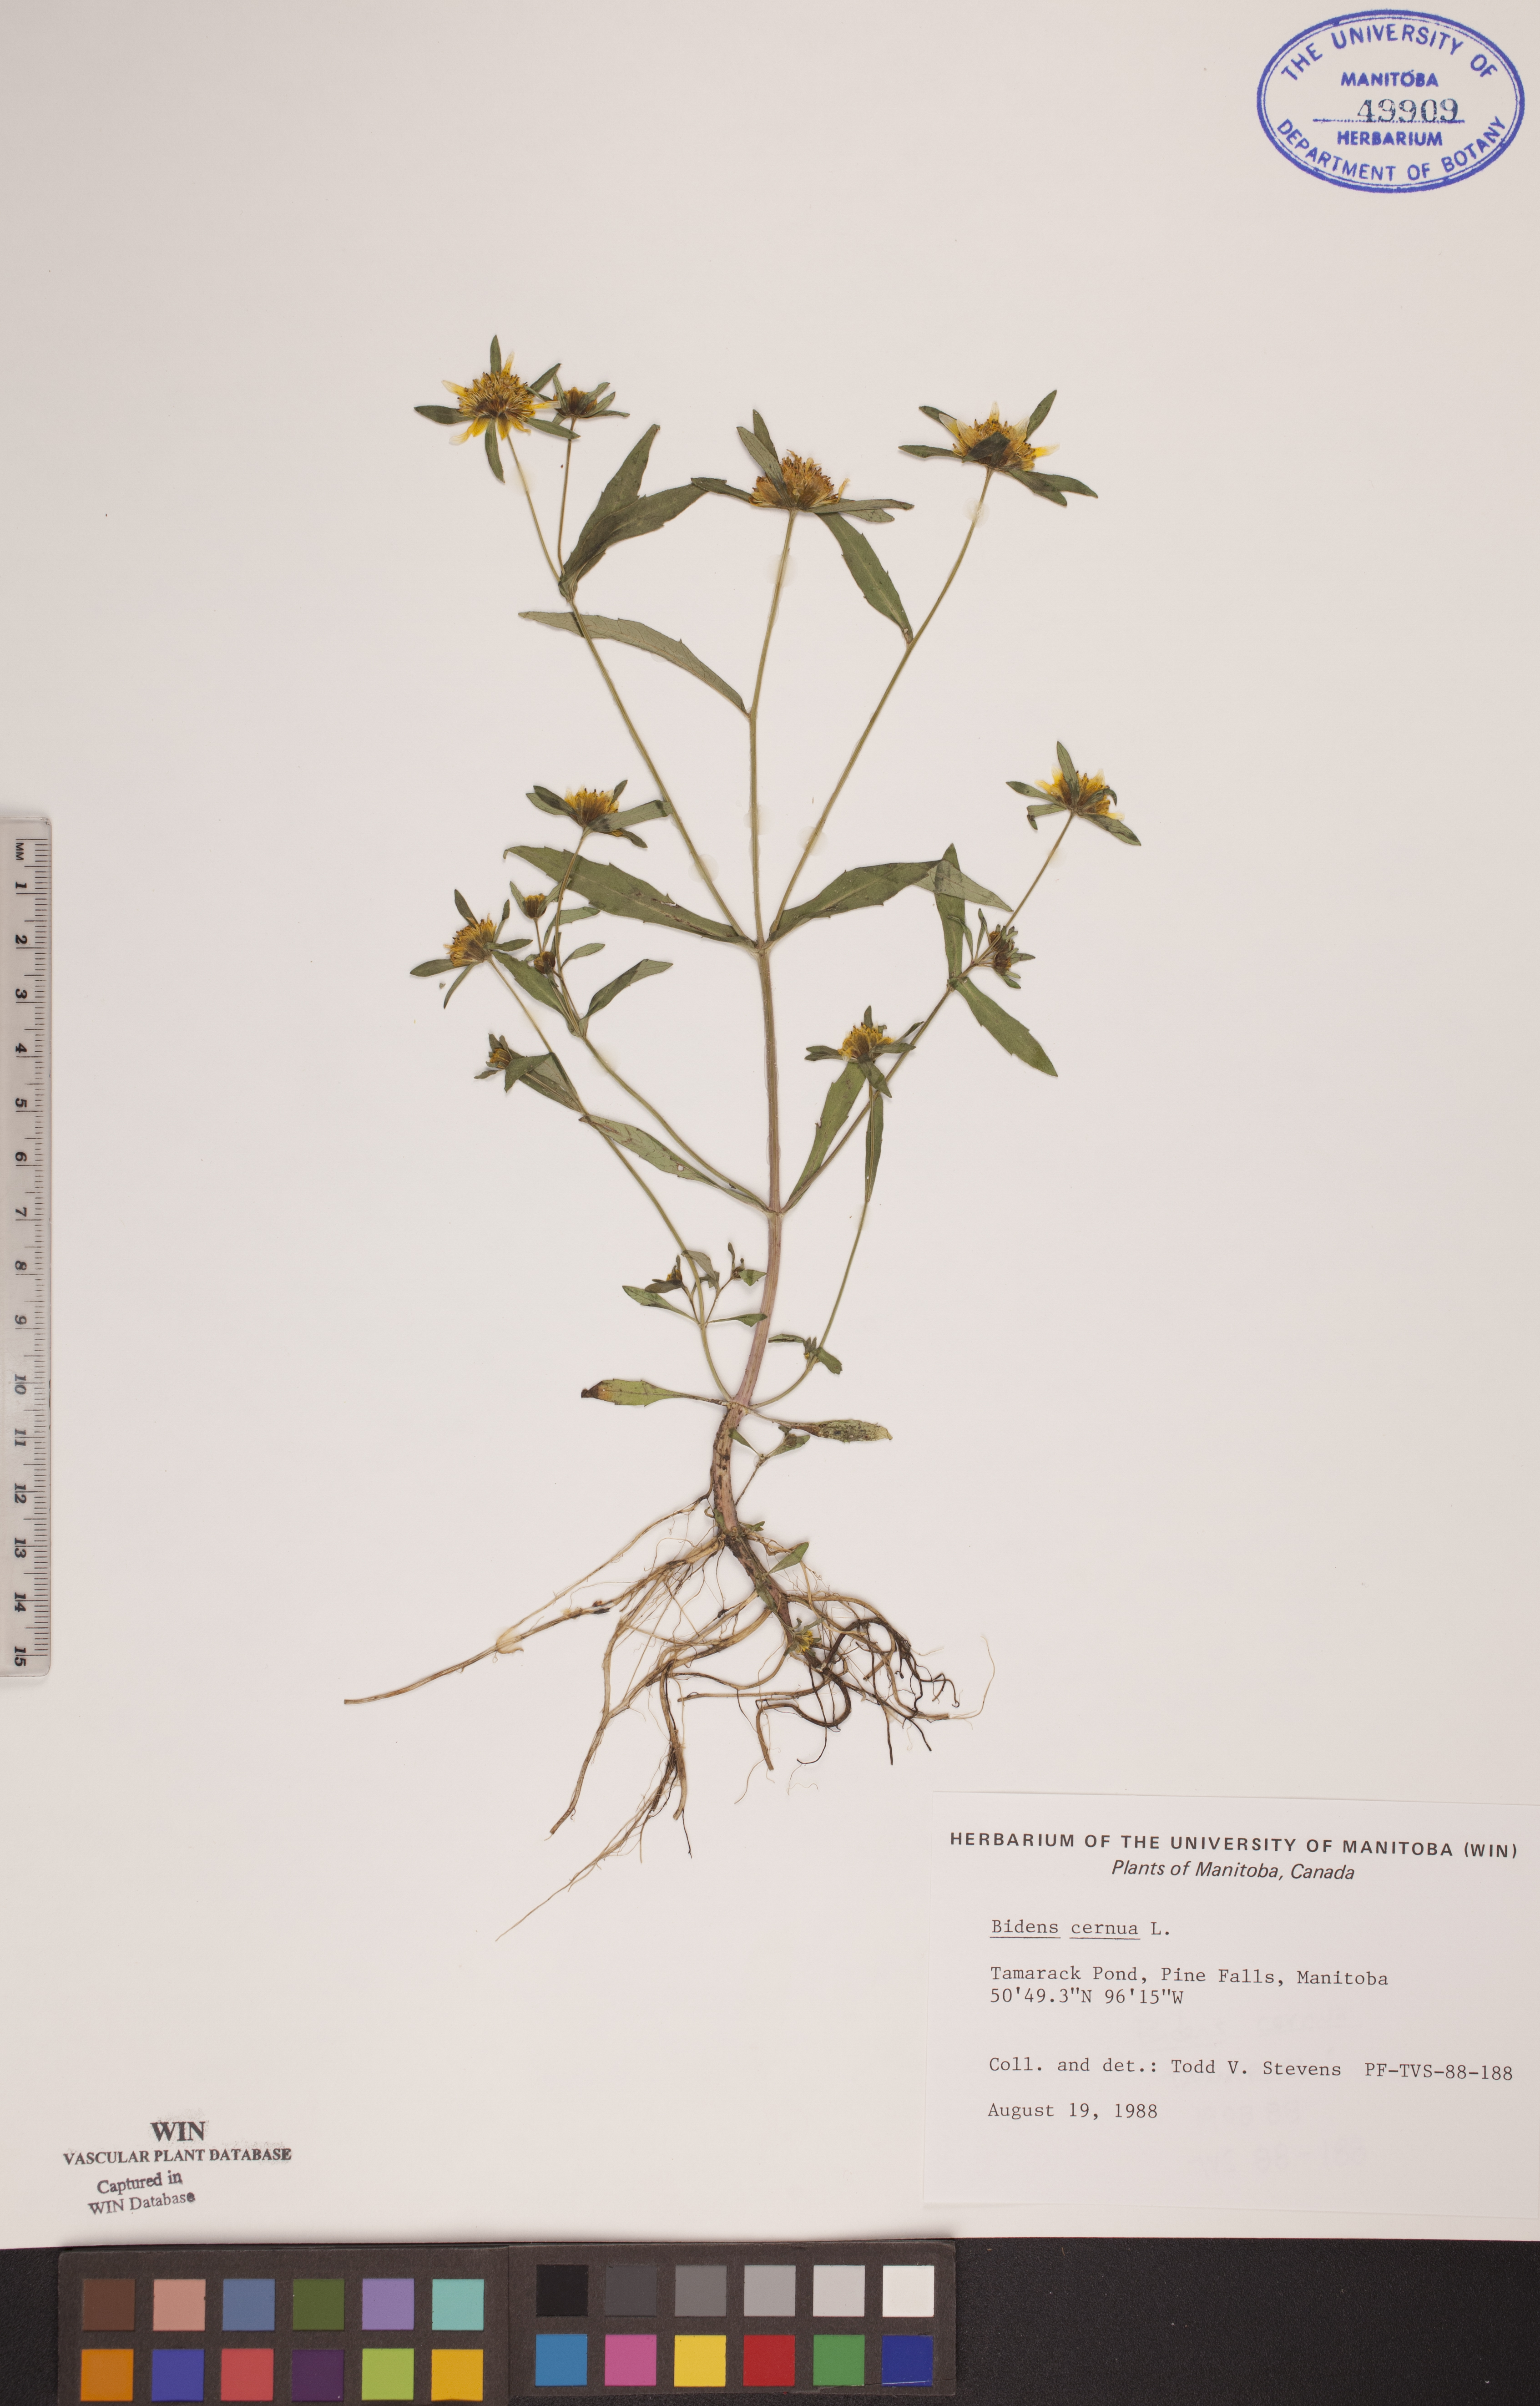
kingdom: Plantae
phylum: Tracheophyta
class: Magnoliopsida
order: Asterales
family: Asteraceae
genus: Bidens
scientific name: Bidens cernua
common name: Nodding bur-marigold
